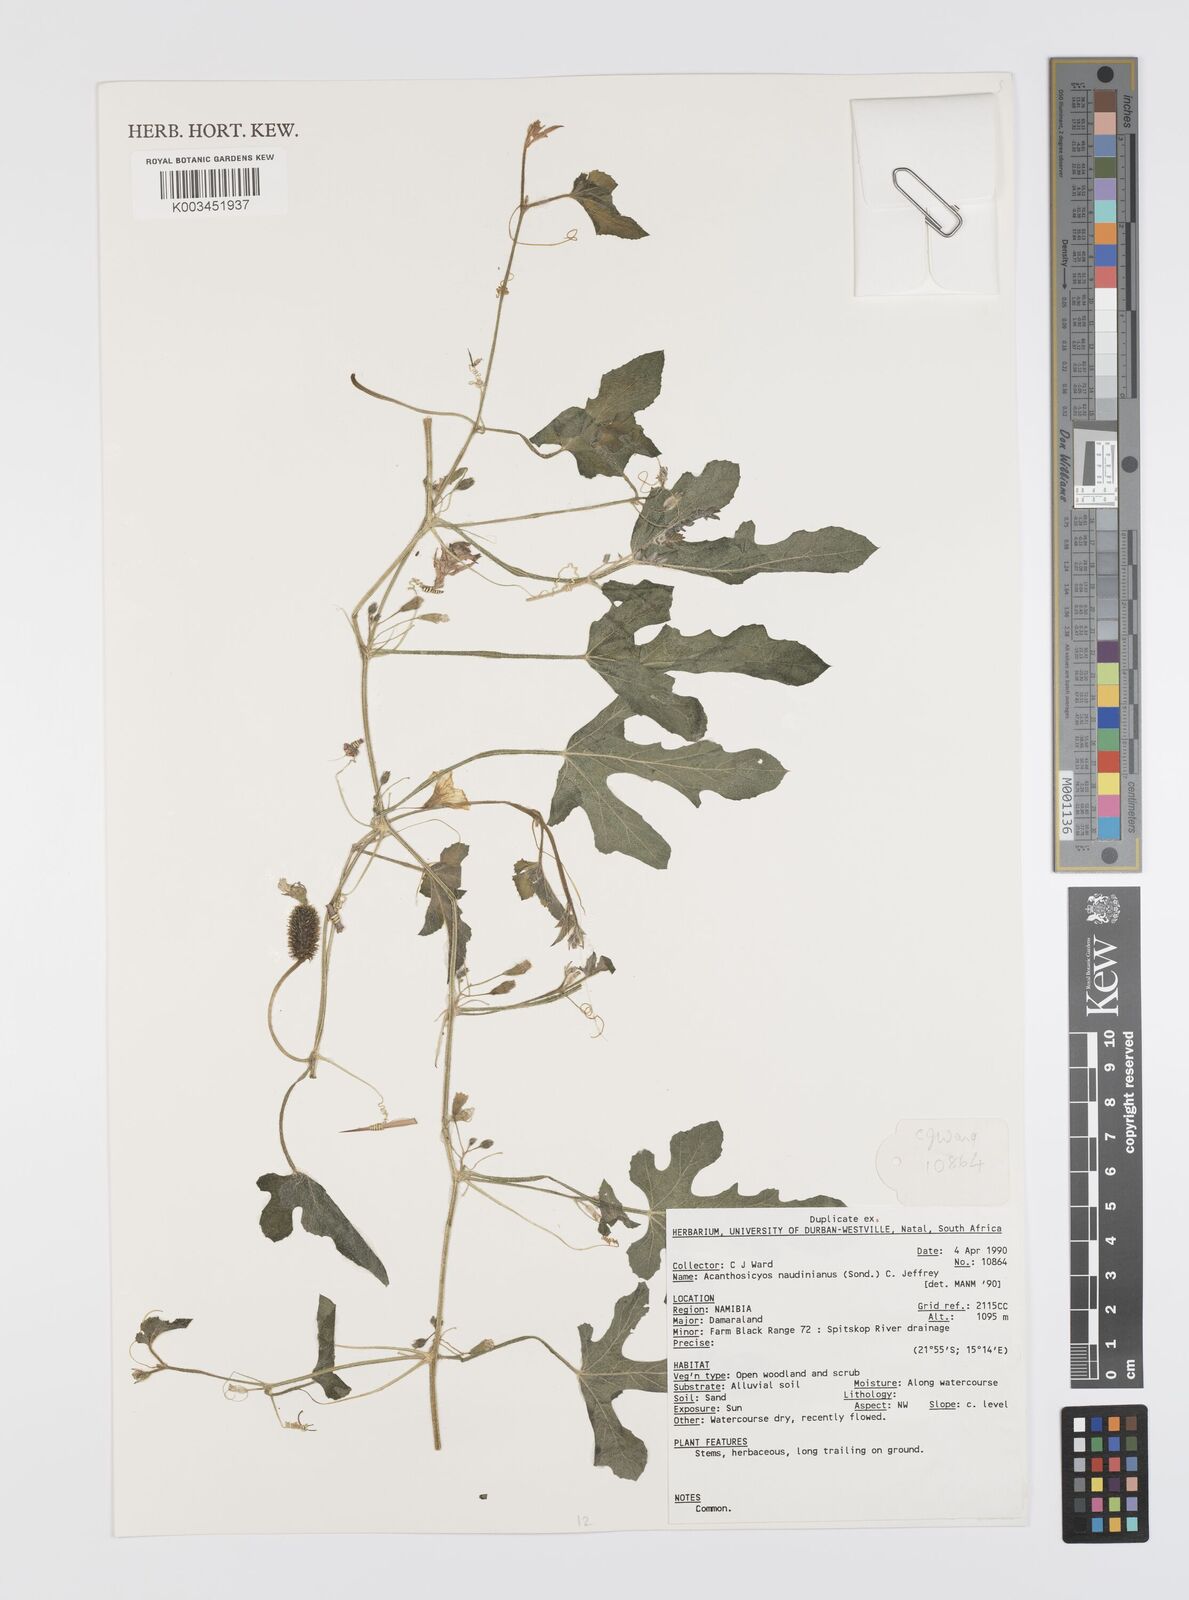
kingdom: Plantae
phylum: Tracheophyta
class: Magnoliopsida
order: Cucurbitales
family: Cucurbitaceae
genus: Citrullus
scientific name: Citrullus naudinianus
